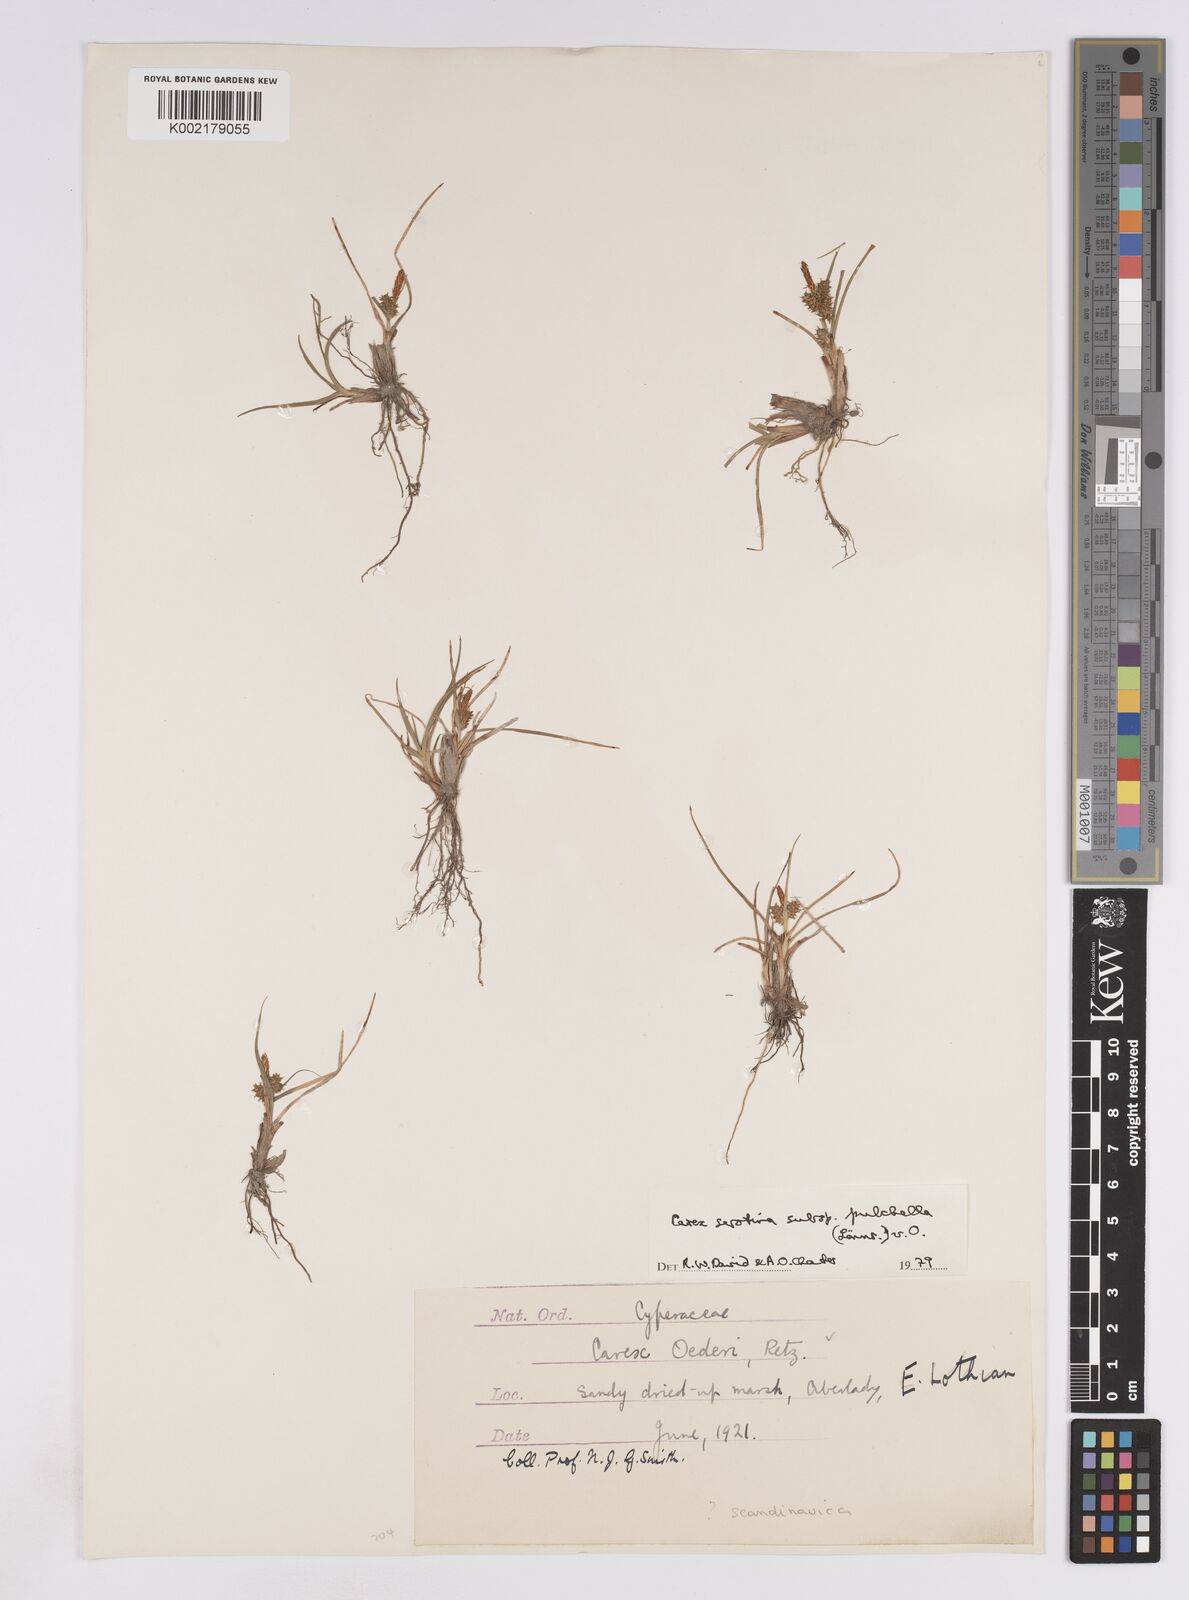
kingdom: Plantae
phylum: Tracheophyta
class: Liliopsida
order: Poales
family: Cyperaceae
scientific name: Cyperaceae
